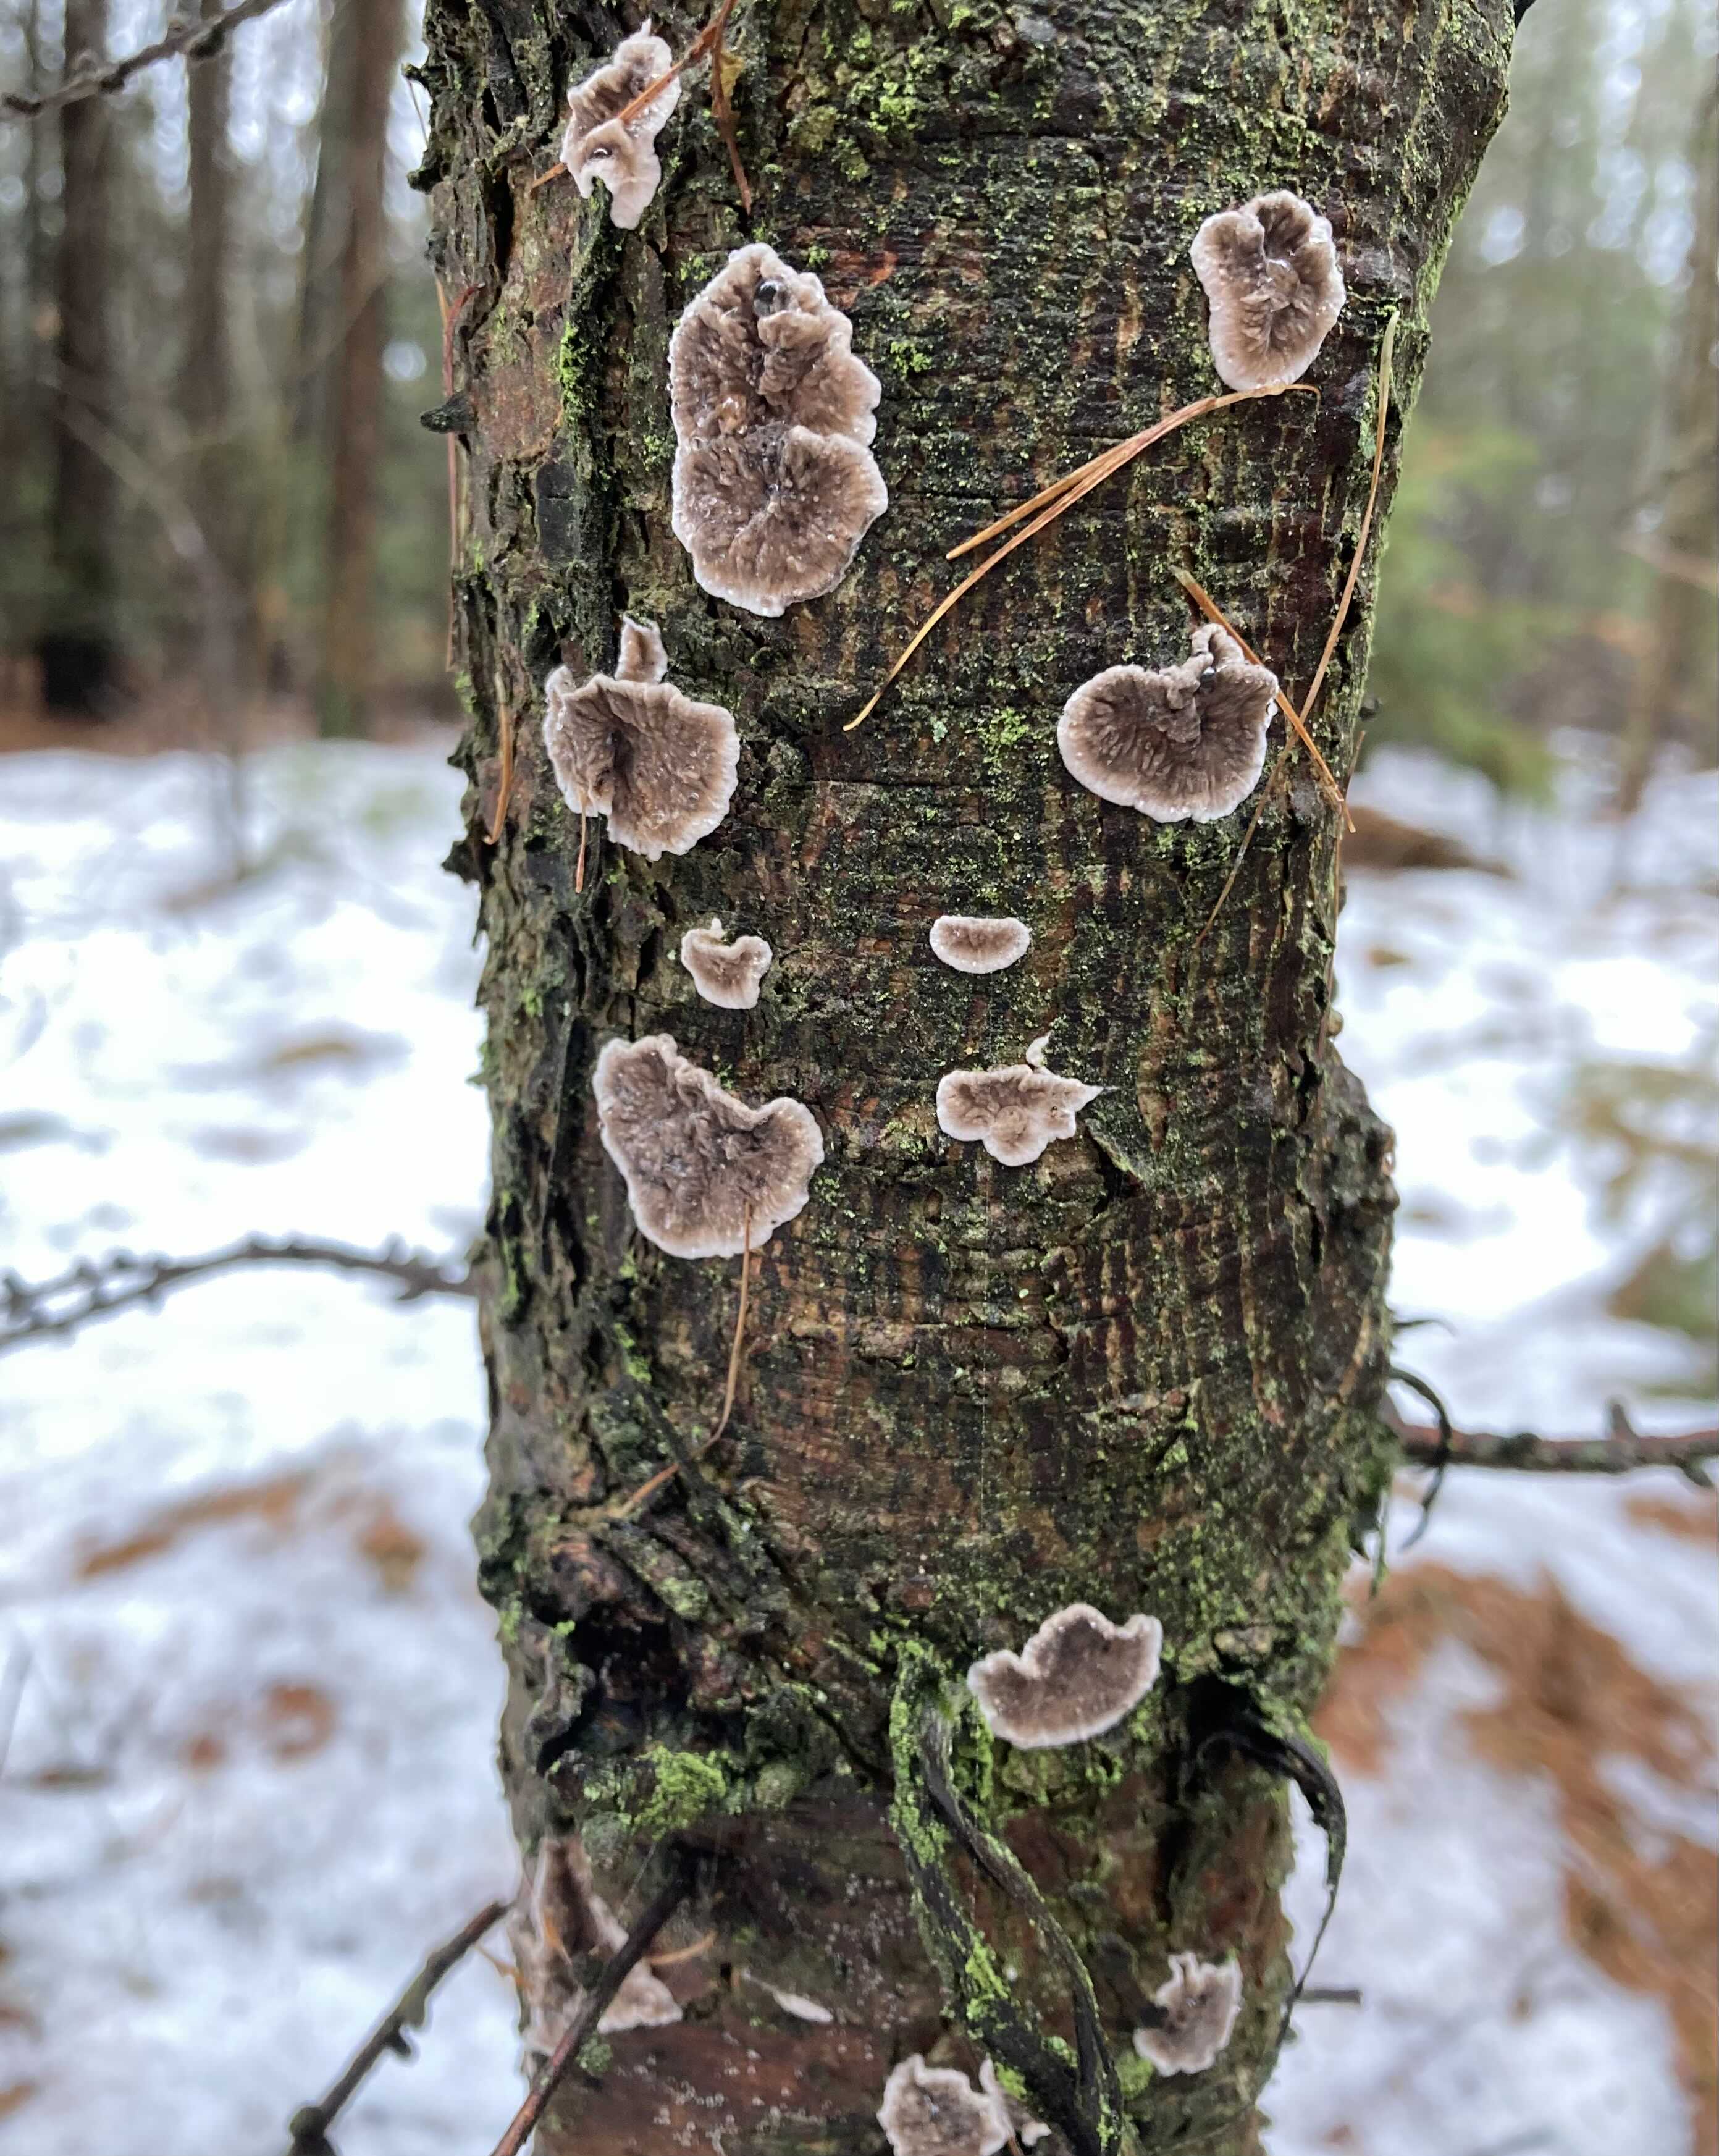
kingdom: Fungi
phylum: Basidiomycota
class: Agaricomycetes
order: Russulales
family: Stereaceae
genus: Stereum
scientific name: Stereum sanguinolentum
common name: blødende lædersvamp
